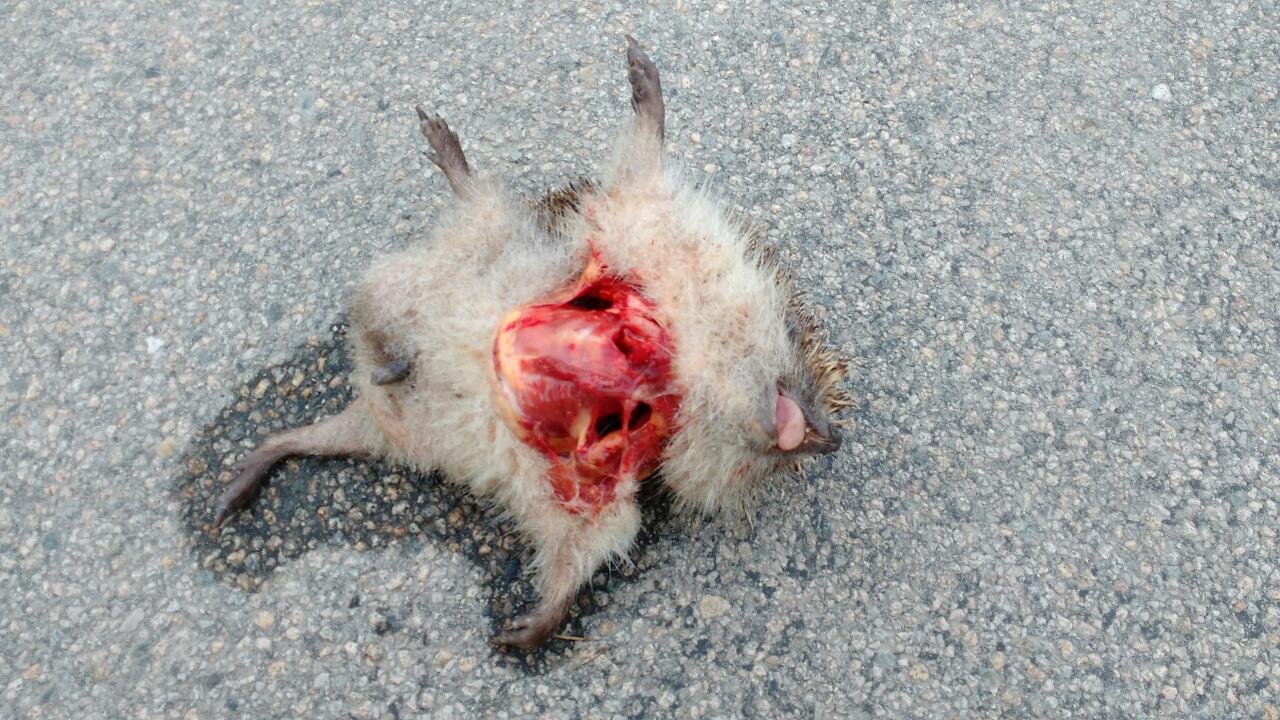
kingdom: Animalia
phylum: Chordata
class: Mammalia
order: Erinaceomorpha
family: Erinaceidae
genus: Erinaceus
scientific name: Erinaceus
